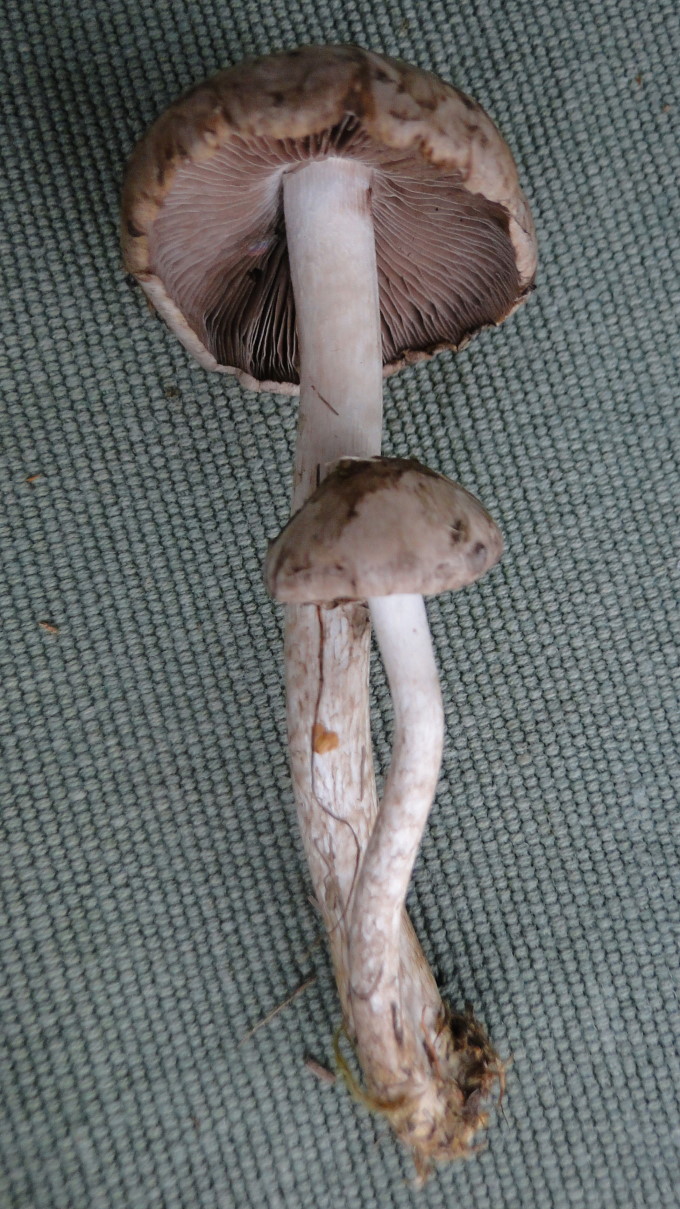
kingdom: Fungi
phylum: Basidiomycota
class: Agaricomycetes
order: Agaricales
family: Psathyrellaceae
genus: Psathyrella
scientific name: Psathyrella cotonea
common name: skællet mørkhat
